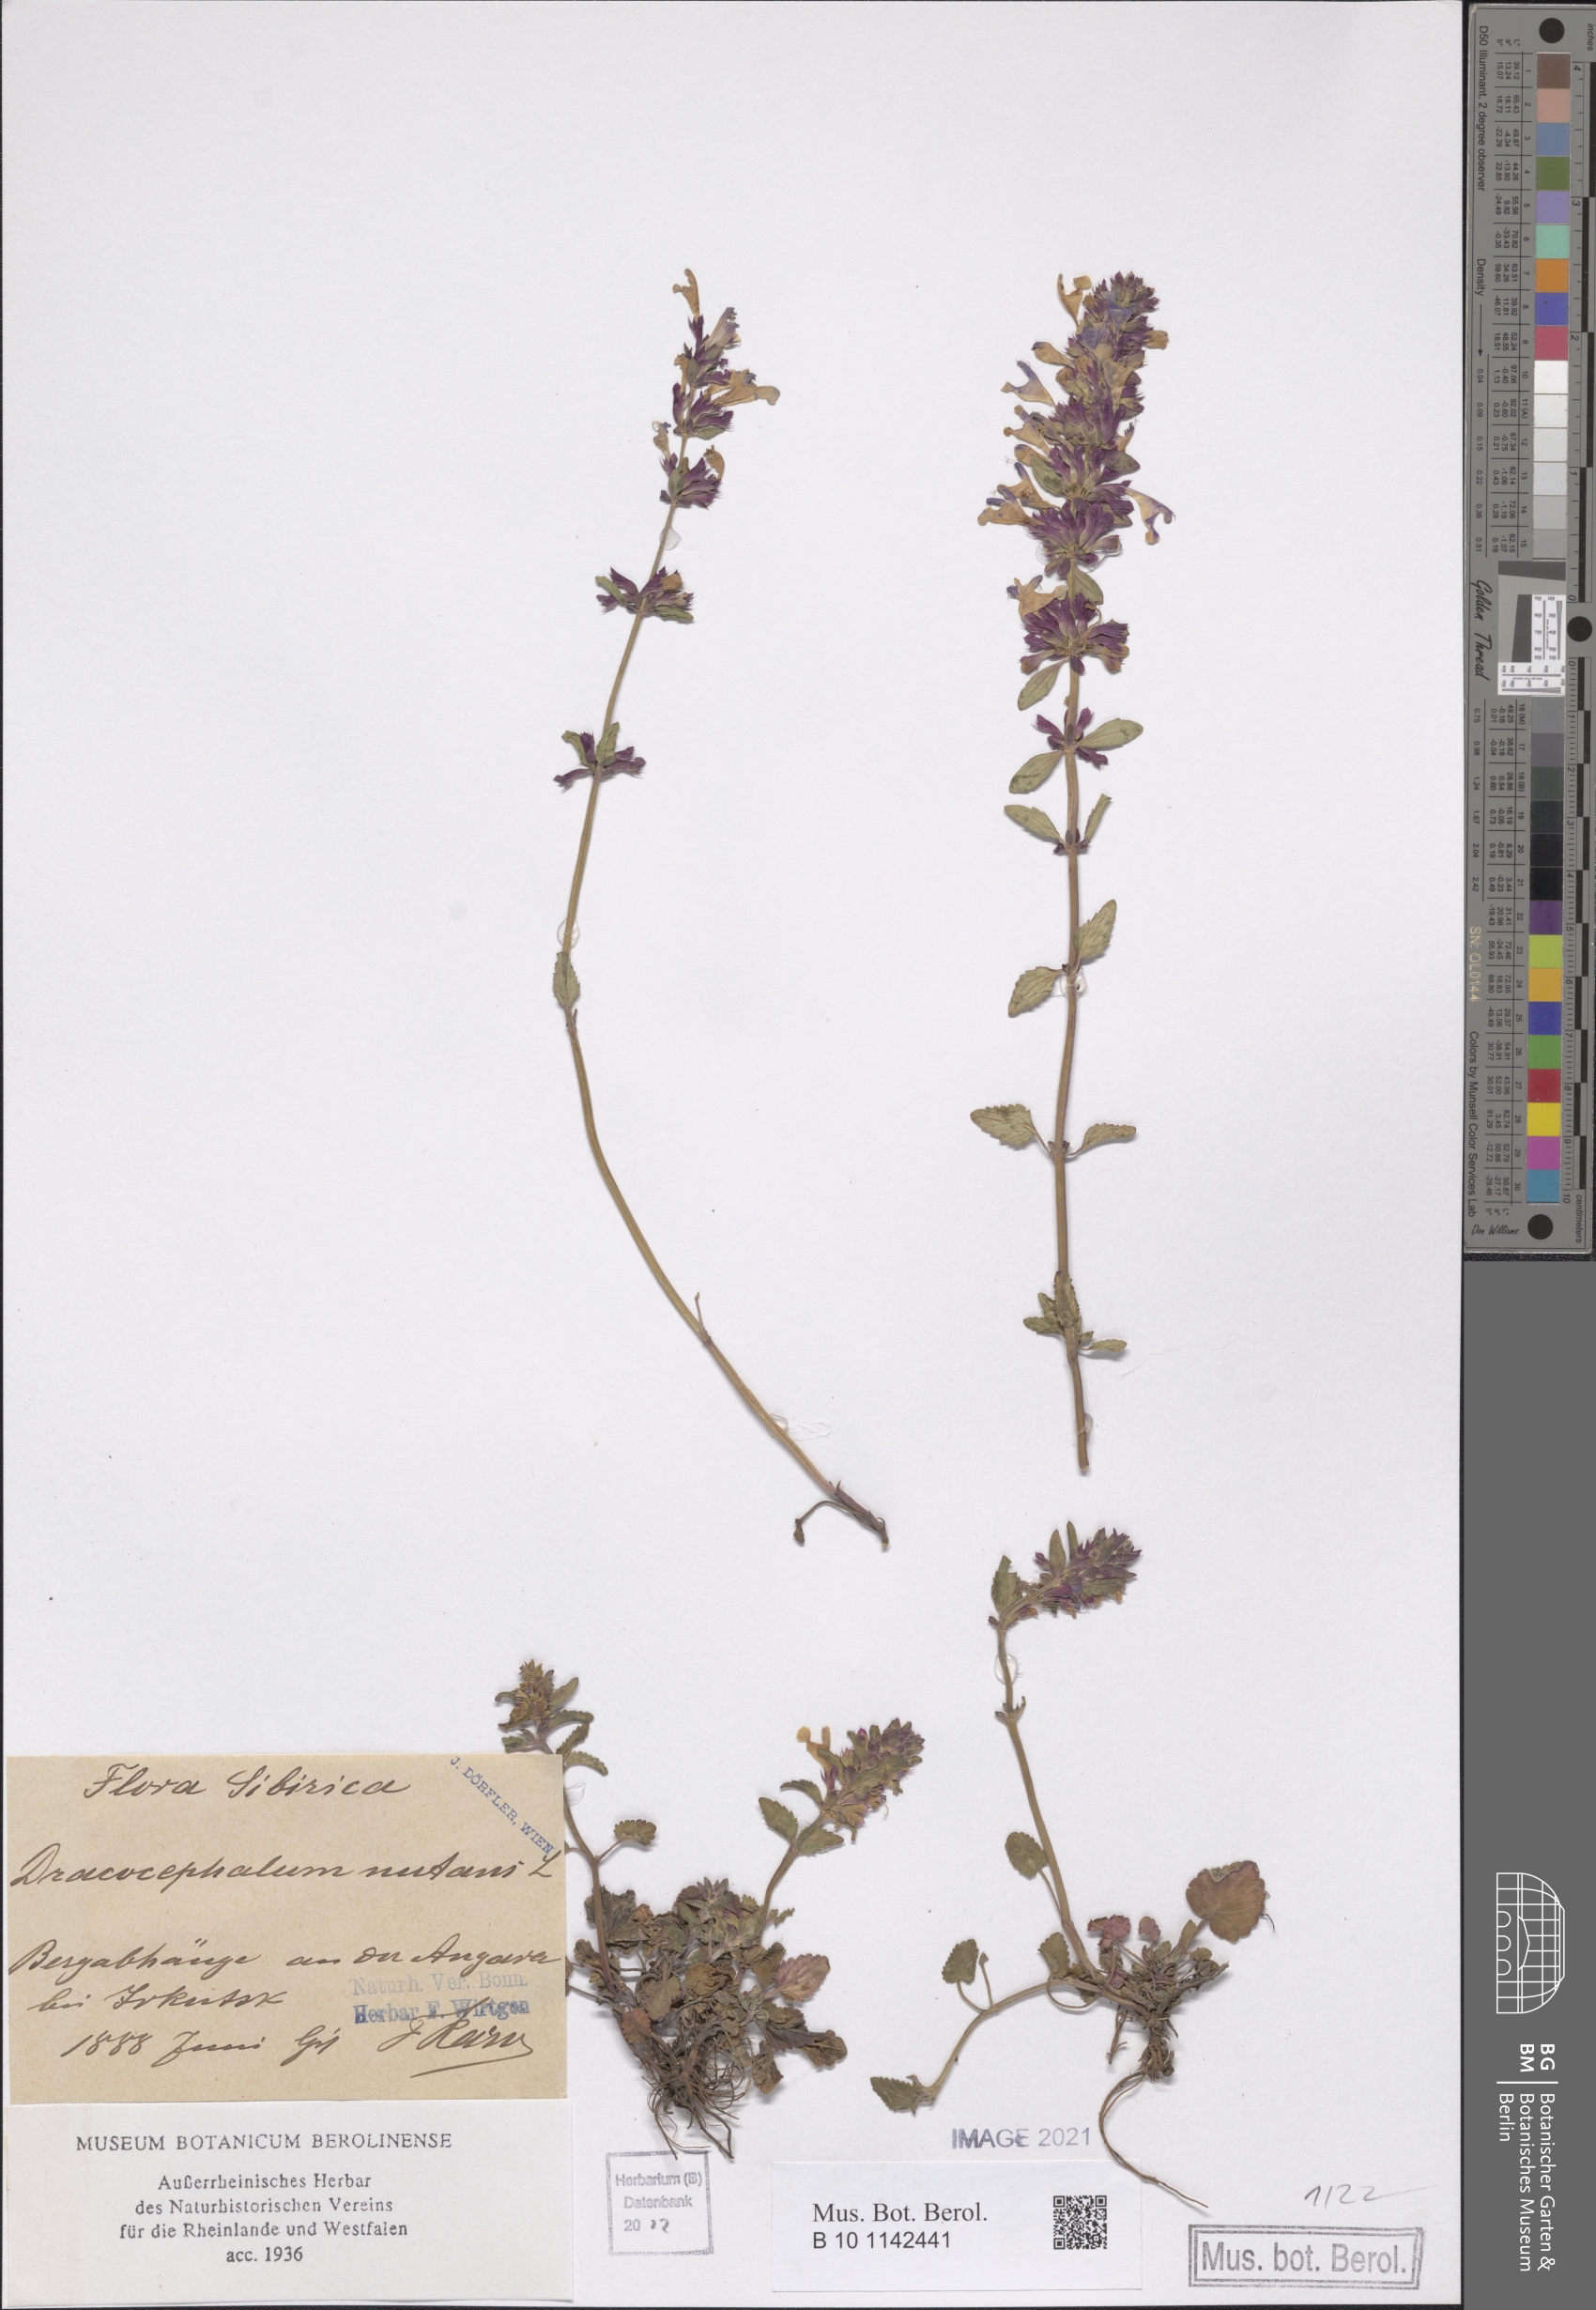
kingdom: Plantae
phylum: Tracheophyta
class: Magnoliopsida
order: Lamiales
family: Lamiaceae
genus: Dracocephalum
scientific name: Dracocephalum nutans
